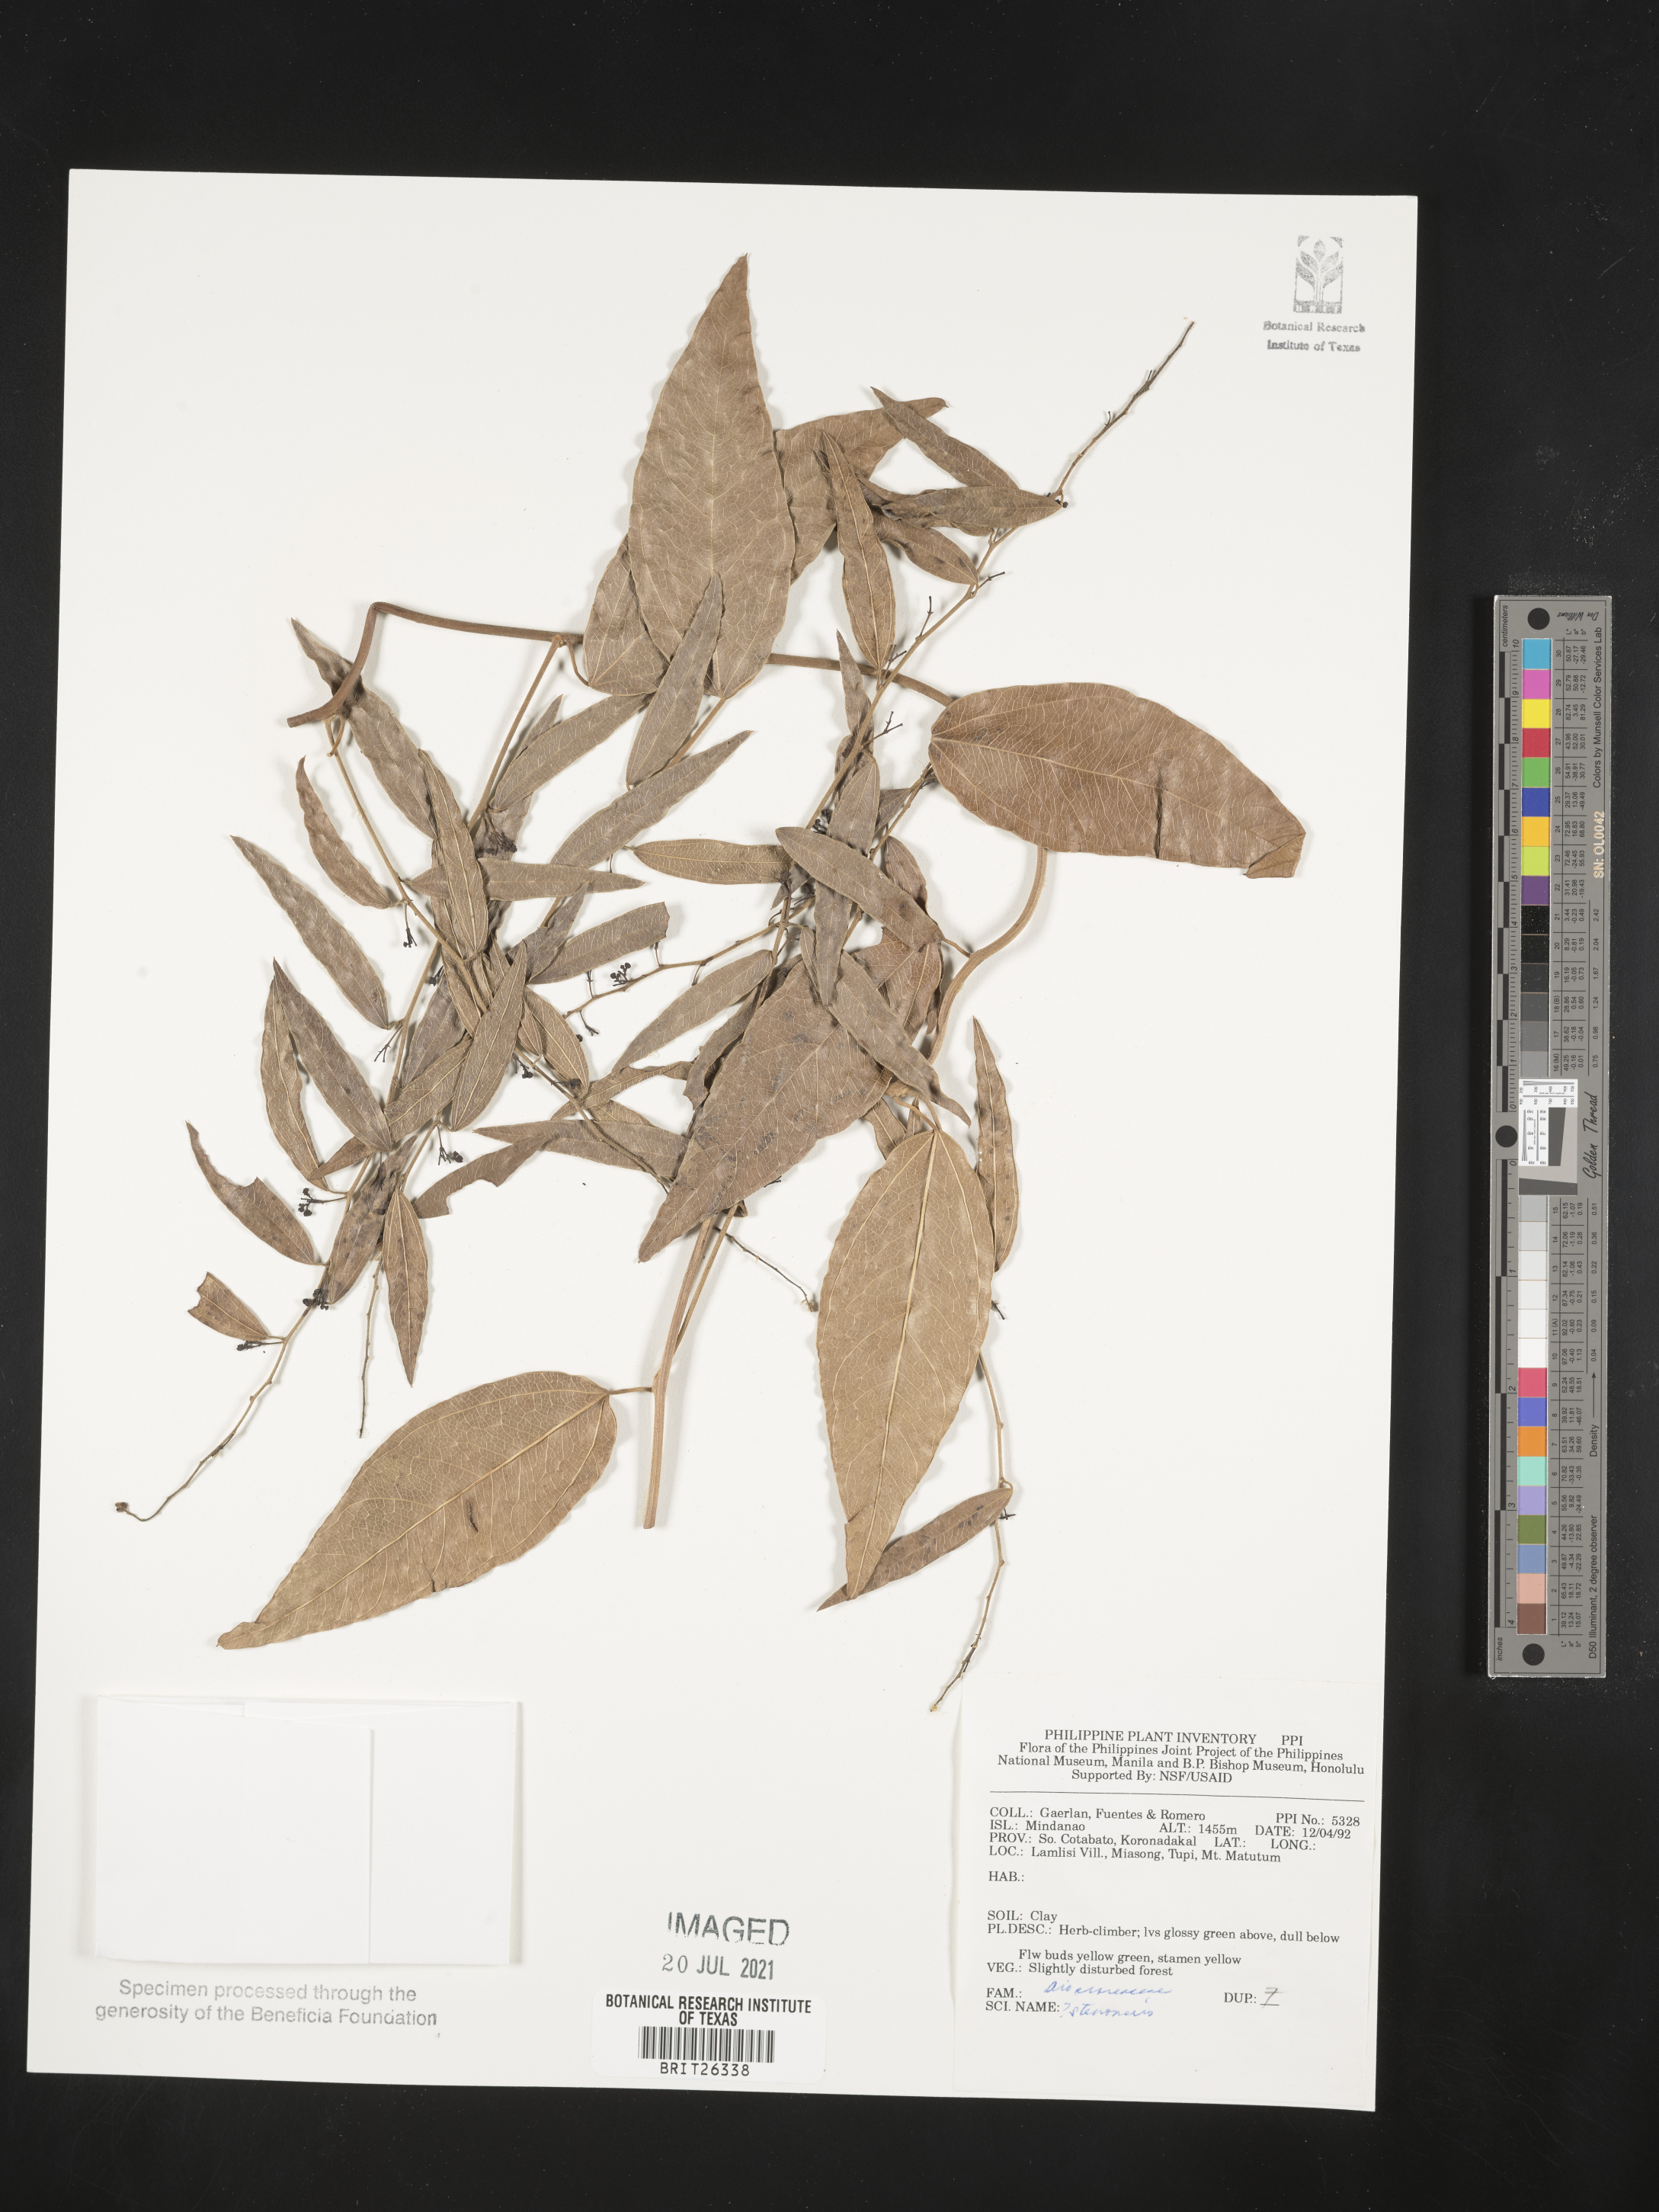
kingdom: Plantae
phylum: Tracheophyta
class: Liliopsida
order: Dioscoreales
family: Dioscoreaceae
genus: Stenomeris
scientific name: Stenomeris
